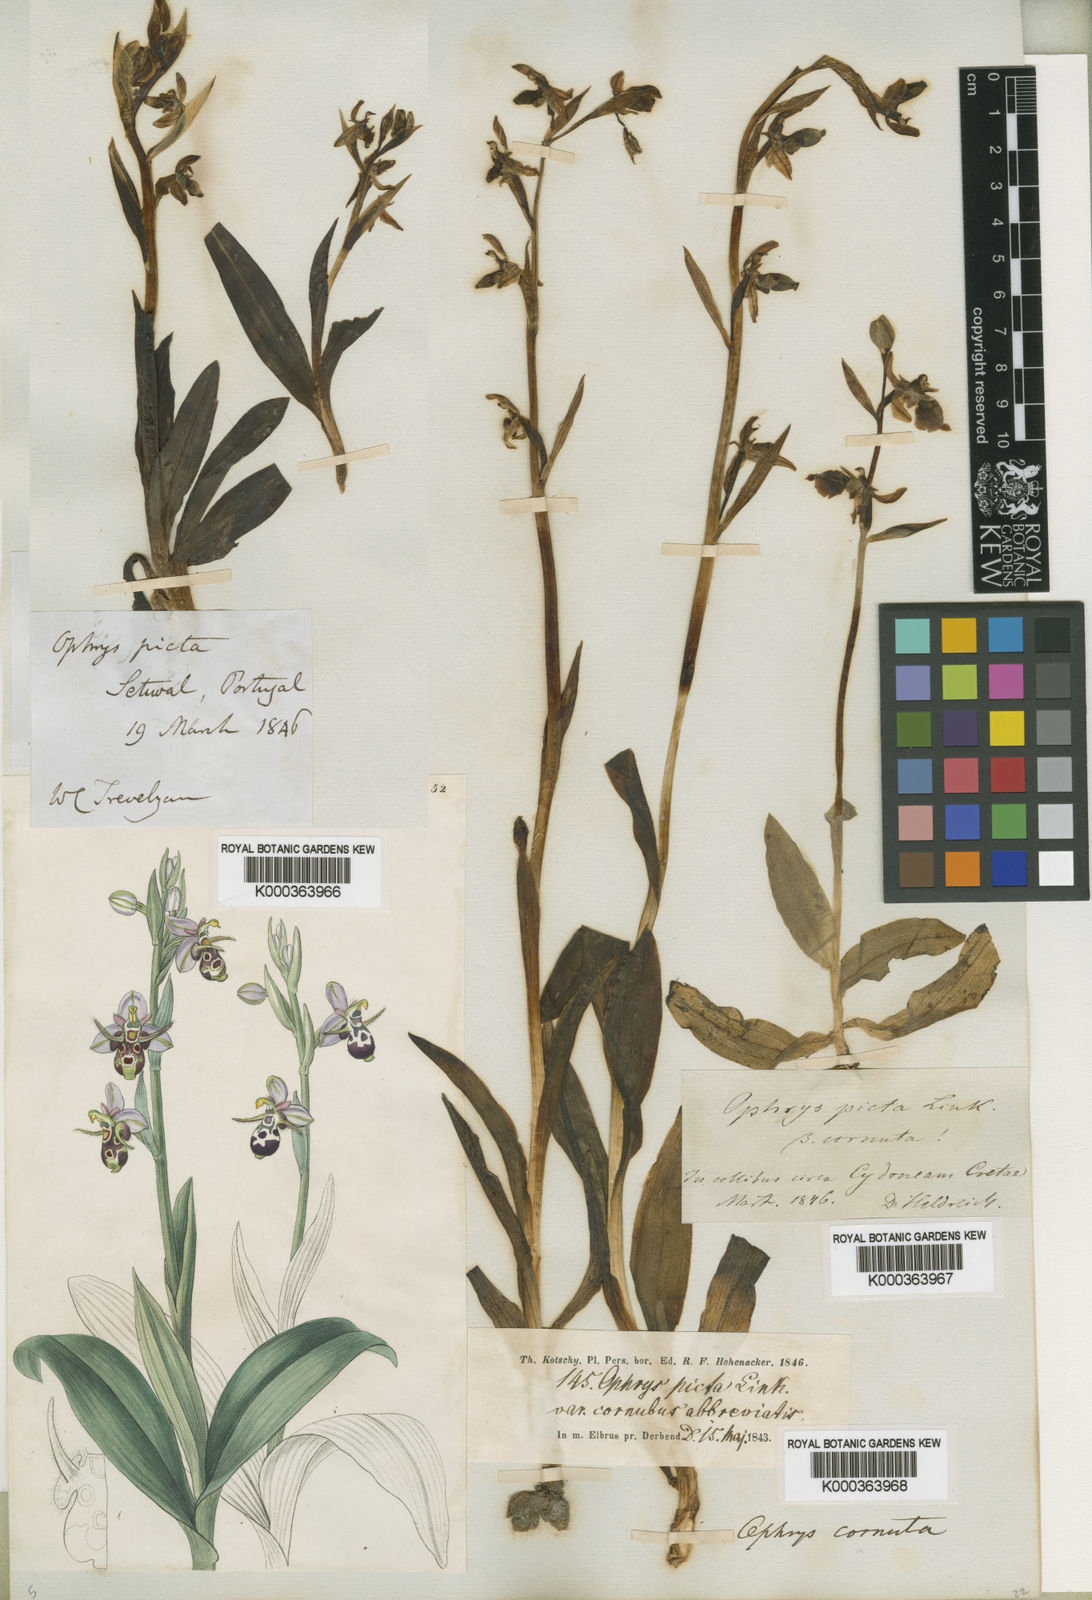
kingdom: Plantae
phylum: Tracheophyta
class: Liliopsida
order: Asparagales
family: Orchidaceae
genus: Ophrys
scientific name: Ophrys
